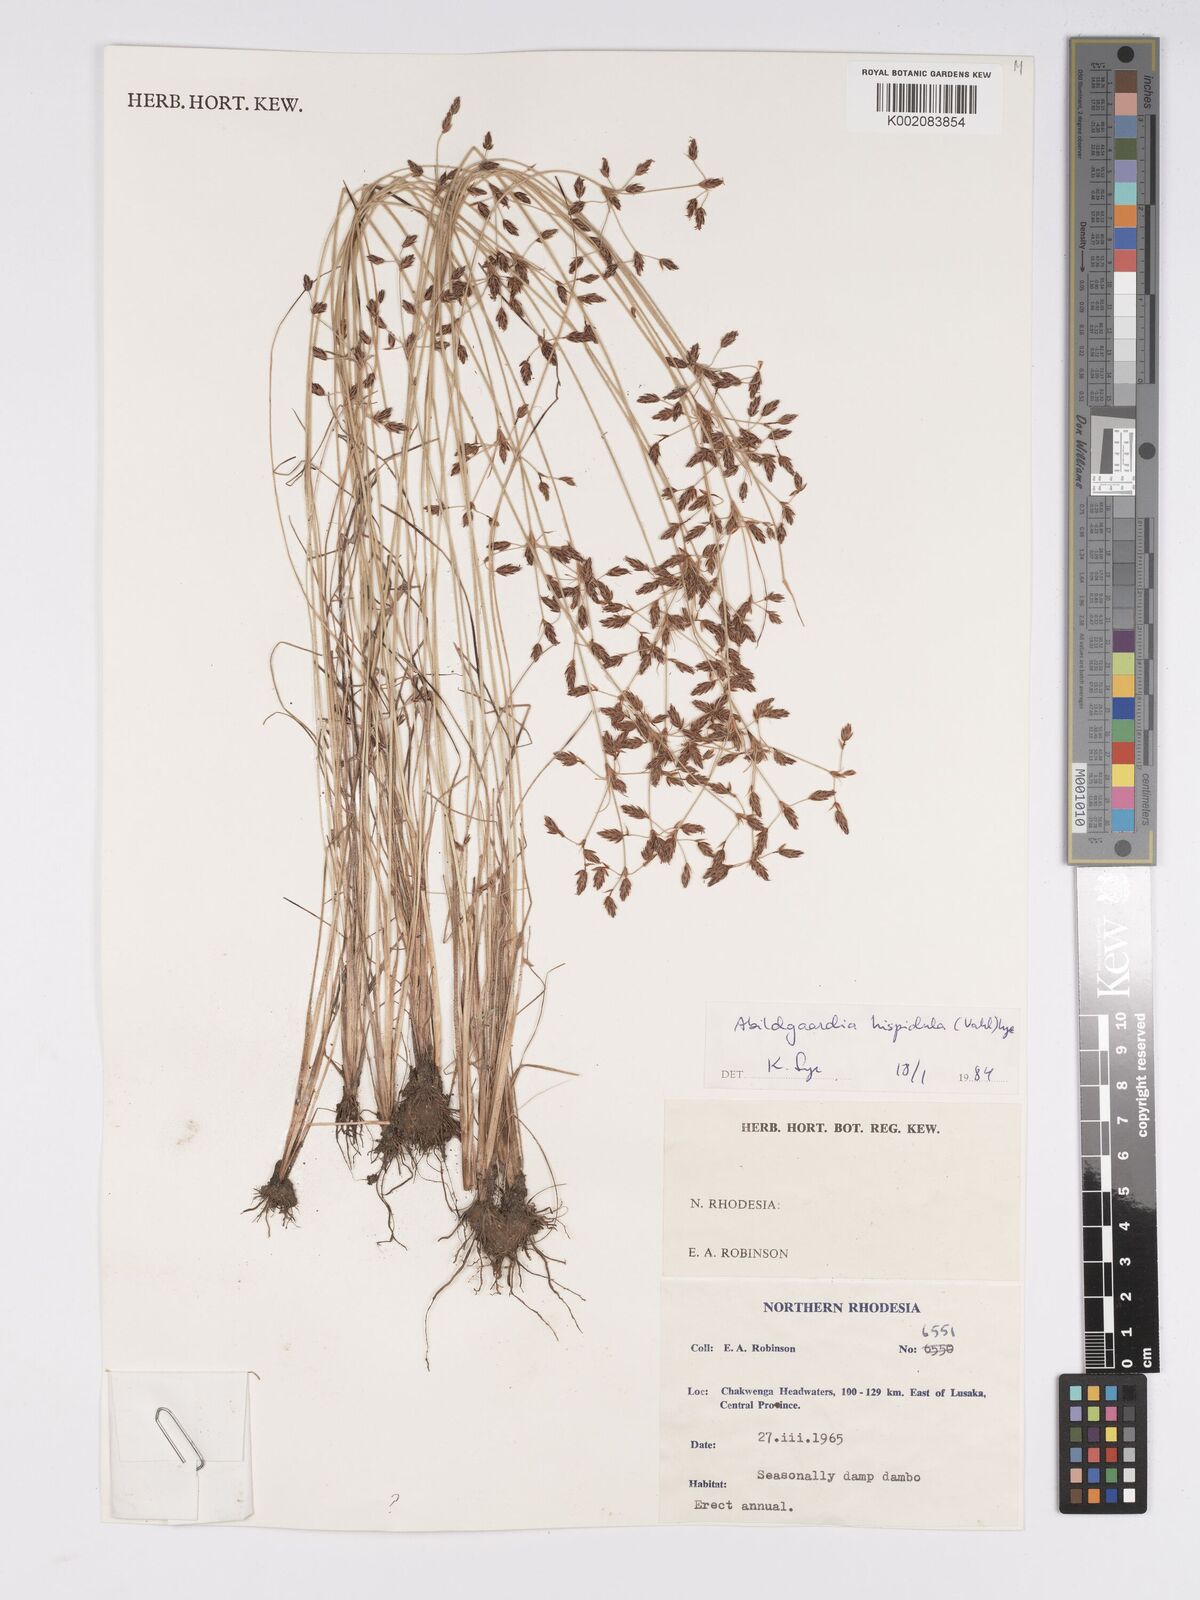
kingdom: Plantae
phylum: Tracheophyta
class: Liliopsida
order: Poales
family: Cyperaceae
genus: Bulbostylis
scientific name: Bulbostylis hispidula
